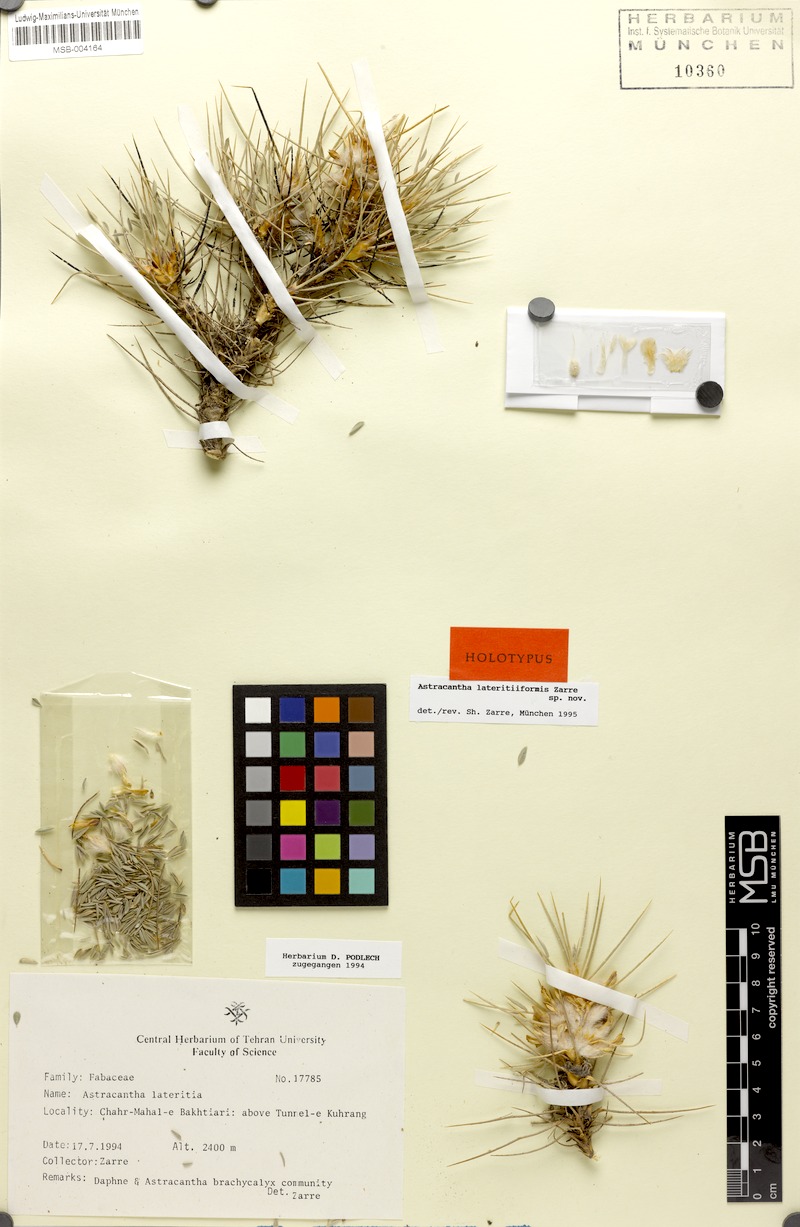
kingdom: Plantae
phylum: Tracheophyta
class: Magnoliopsida
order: Fabales
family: Fabaceae
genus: Astragalus
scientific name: Astragalus lateritiiformis
